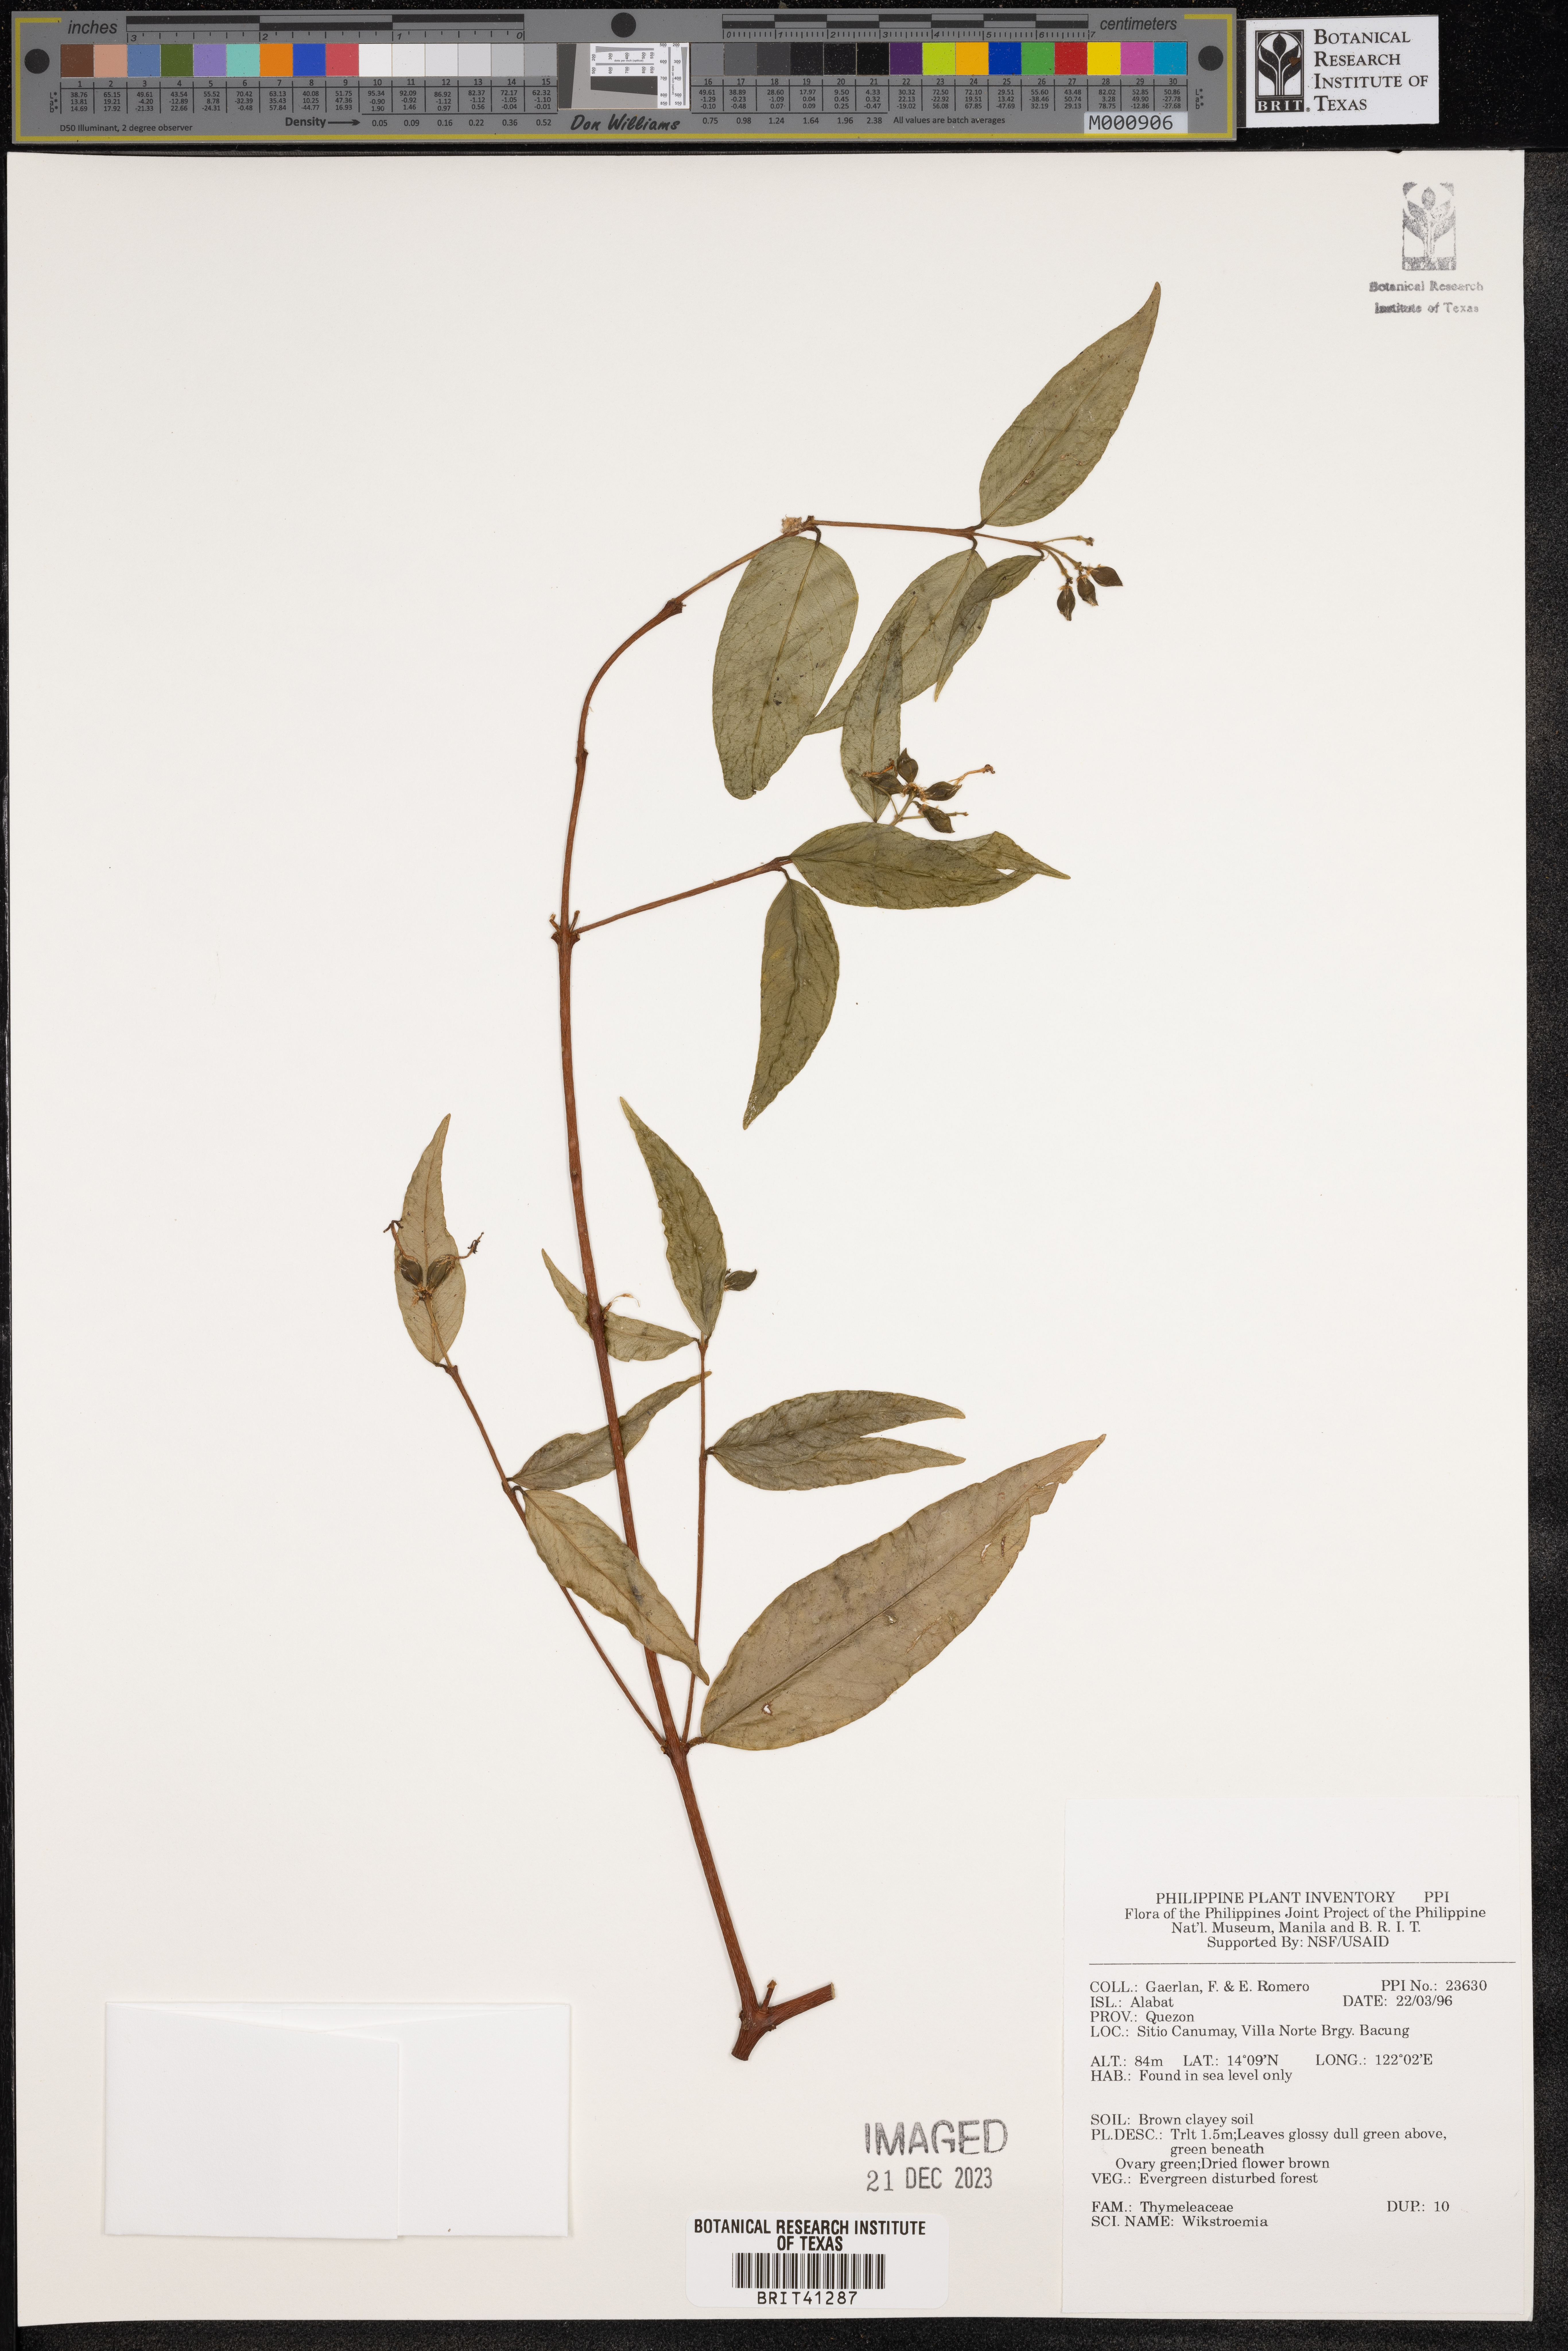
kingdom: Plantae
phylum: Tracheophyta
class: Magnoliopsida
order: Malvales
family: Thymelaeaceae
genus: Wikstroemia
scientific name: Wikstroemia
